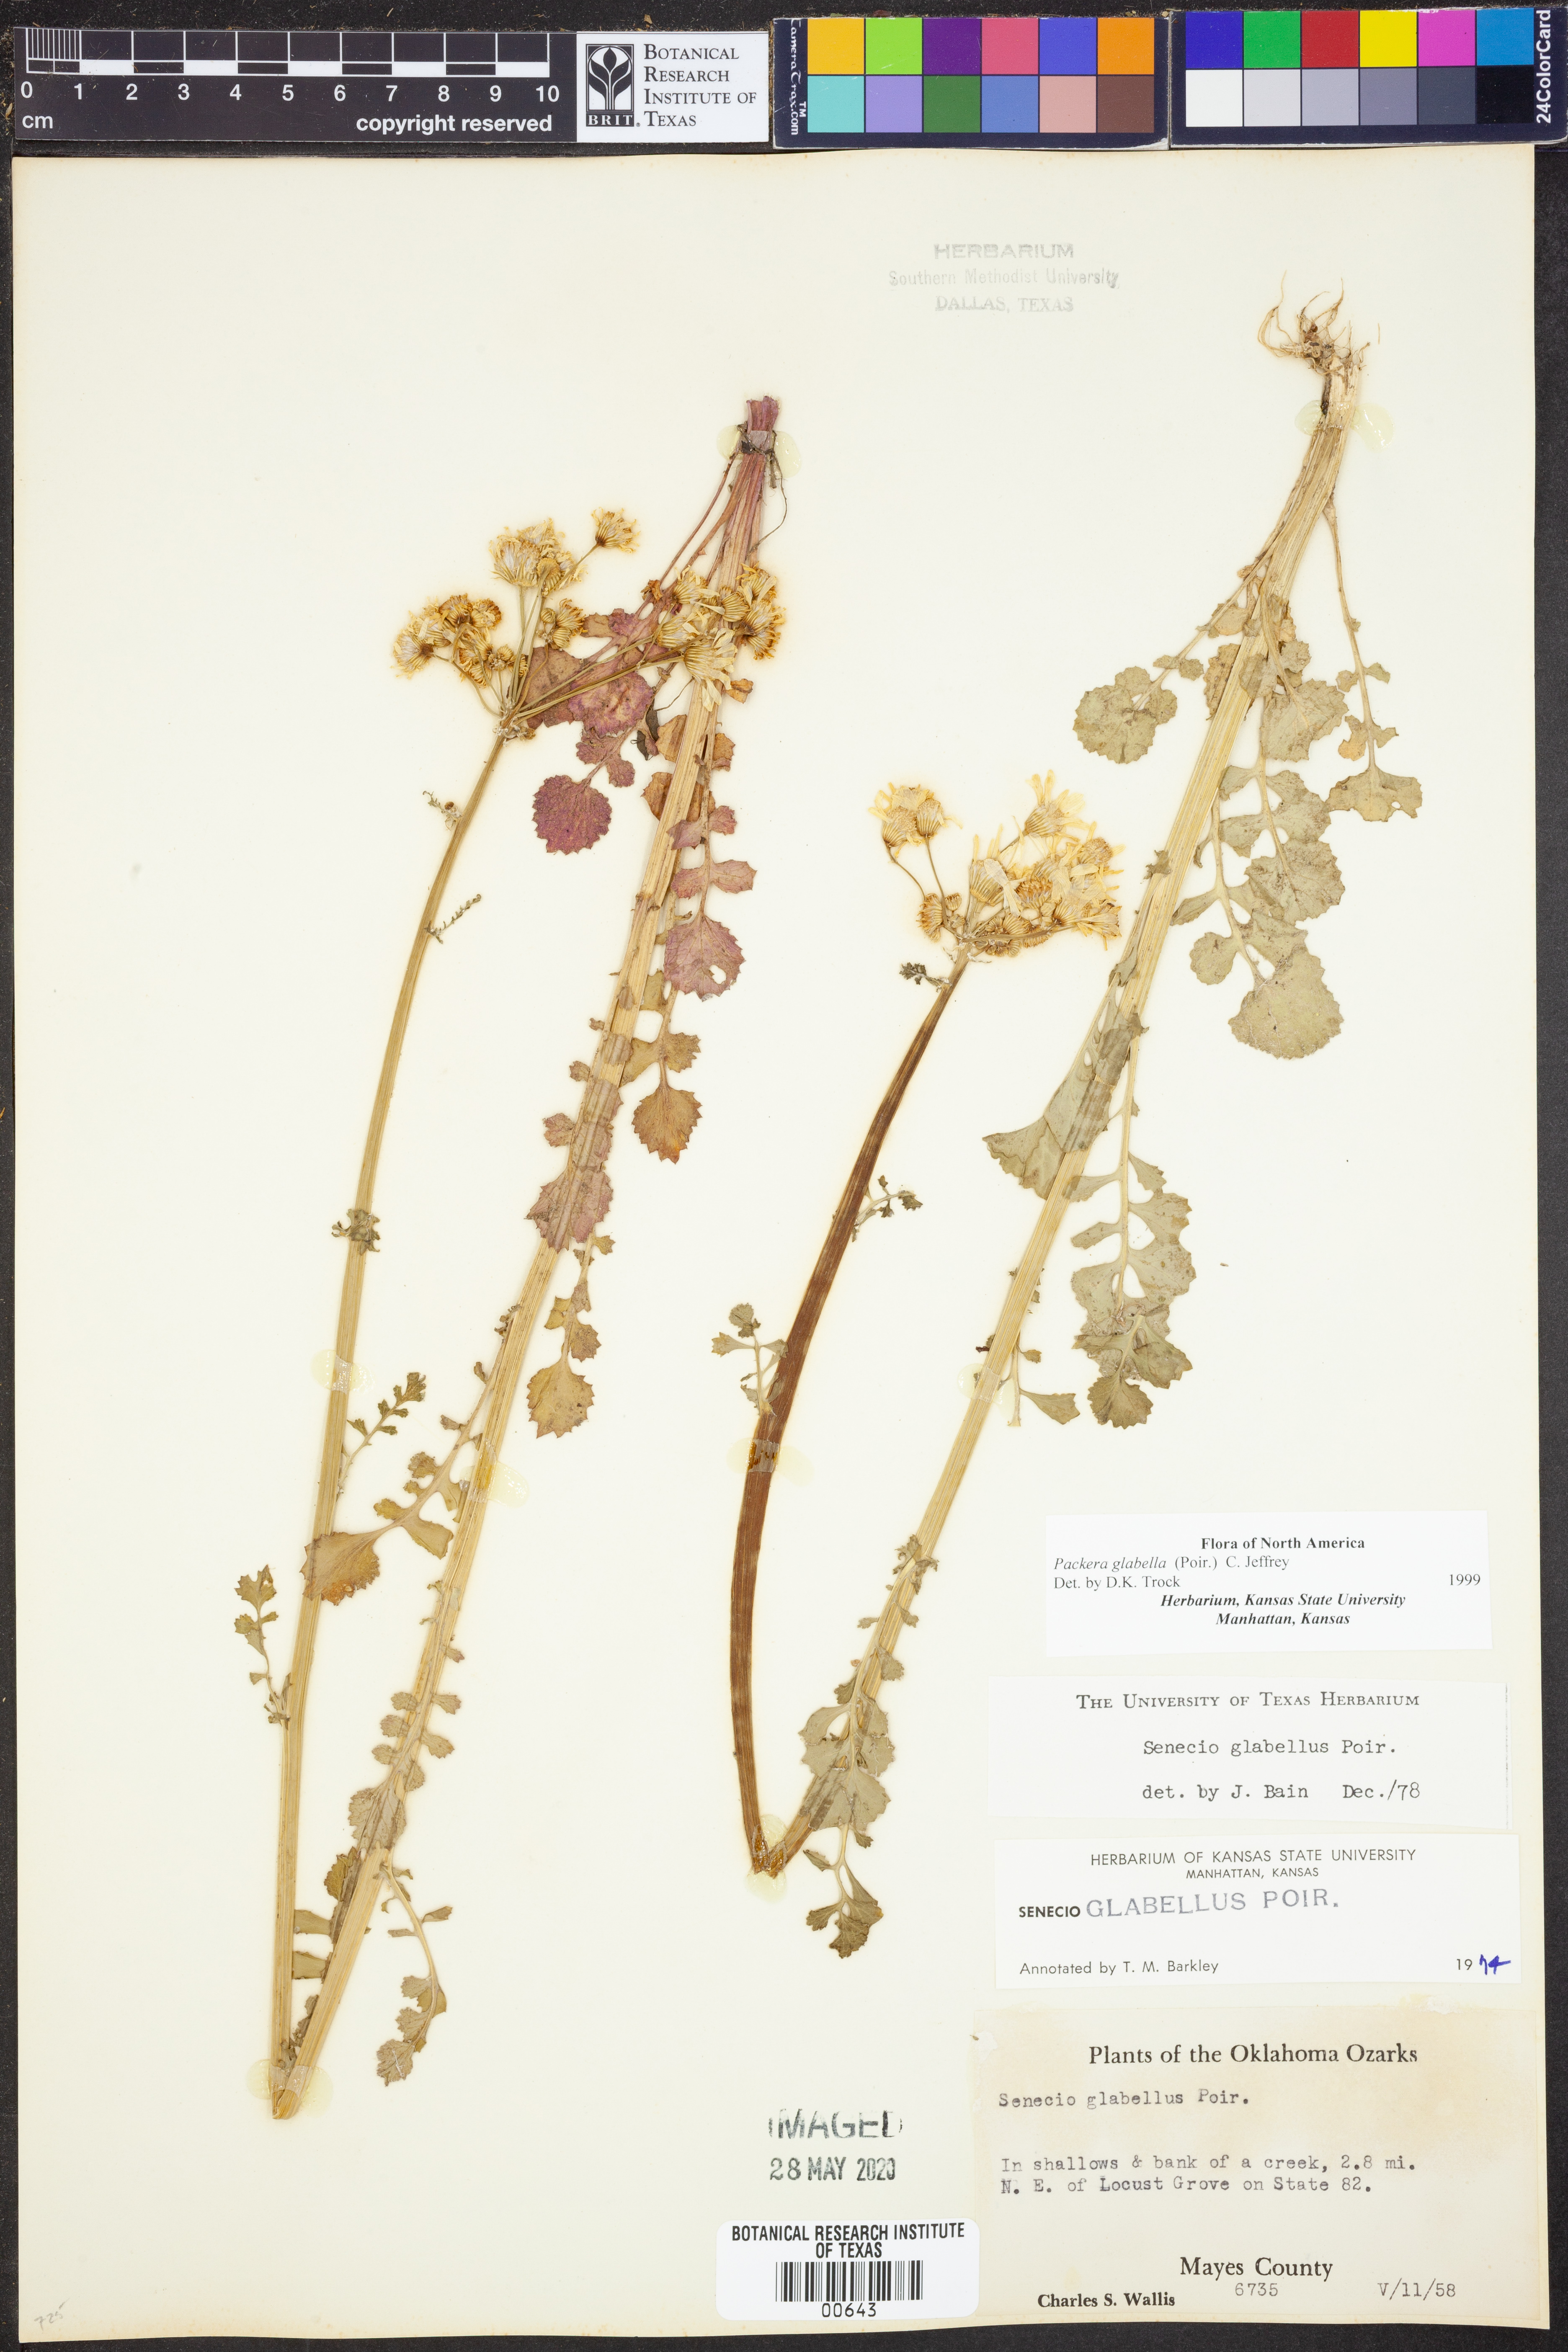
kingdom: Plantae
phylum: Tracheophyta
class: Magnoliopsida
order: Asterales
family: Asteraceae
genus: Packera
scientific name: Packera glabella
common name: Butterweed
